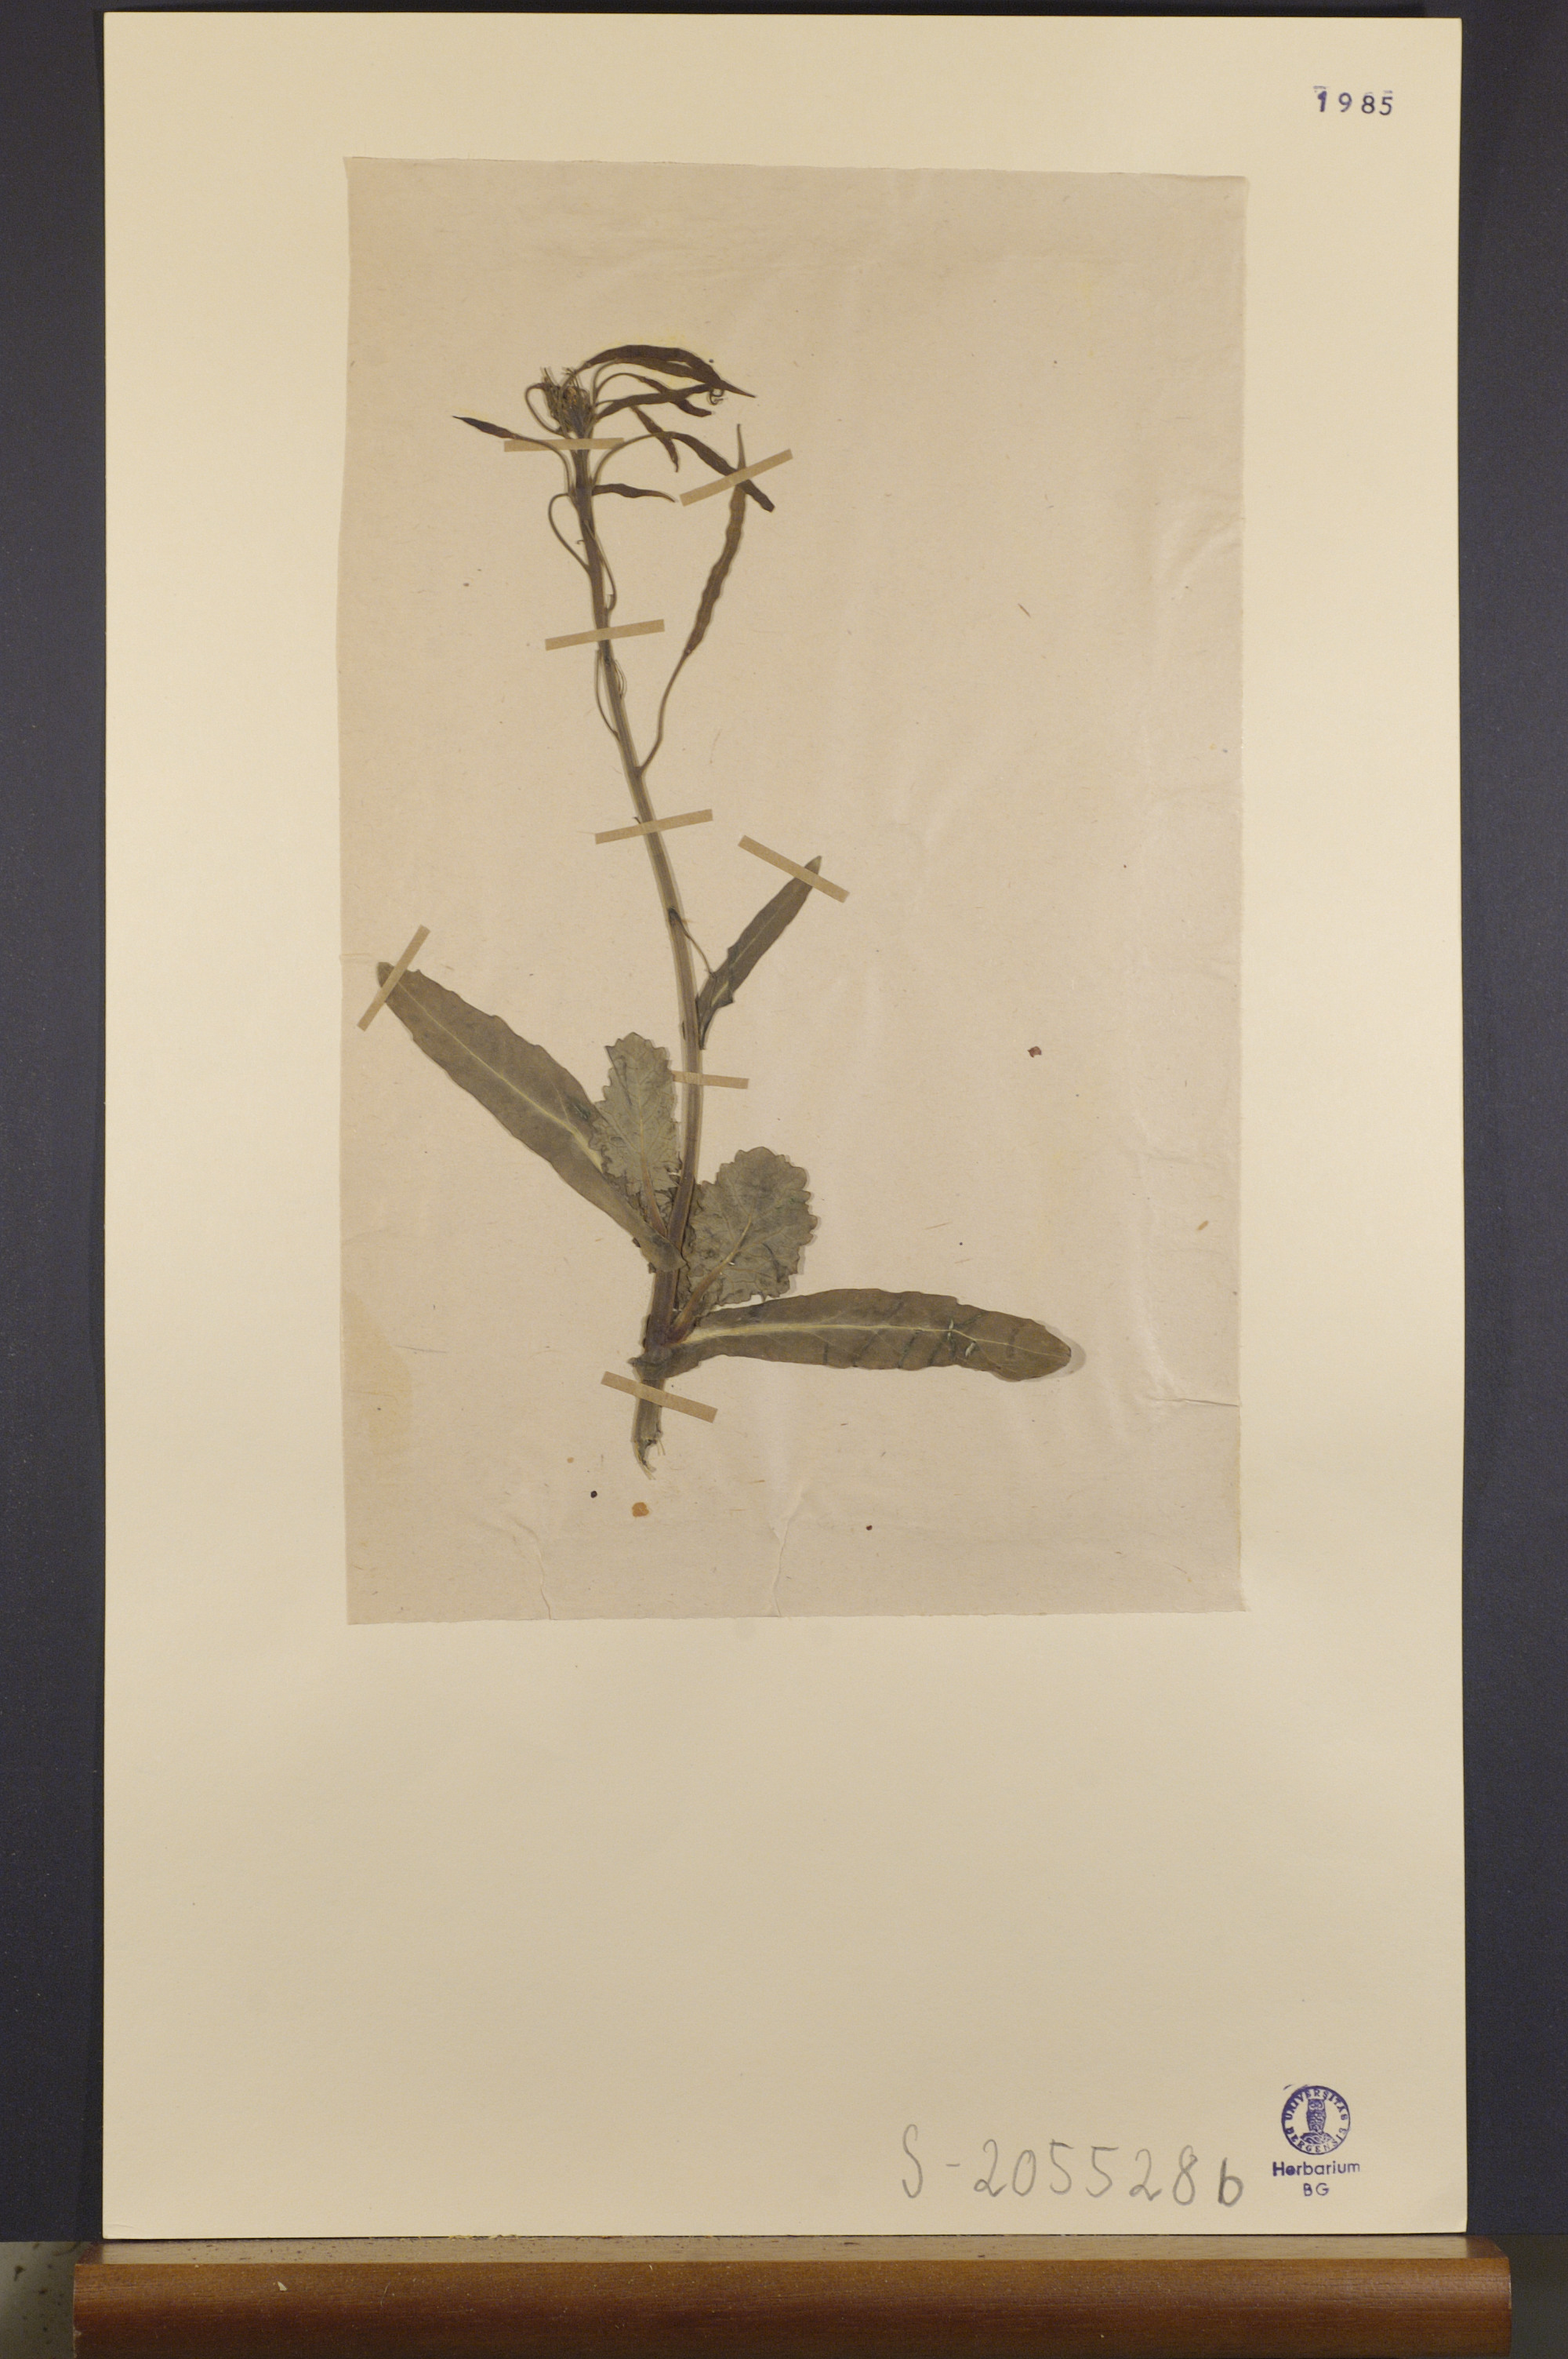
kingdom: Plantae
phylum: Tracheophyta
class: Magnoliopsida
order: Brassicales
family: Brassicaceae
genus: Brassica
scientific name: Brassica napus
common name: Rape
